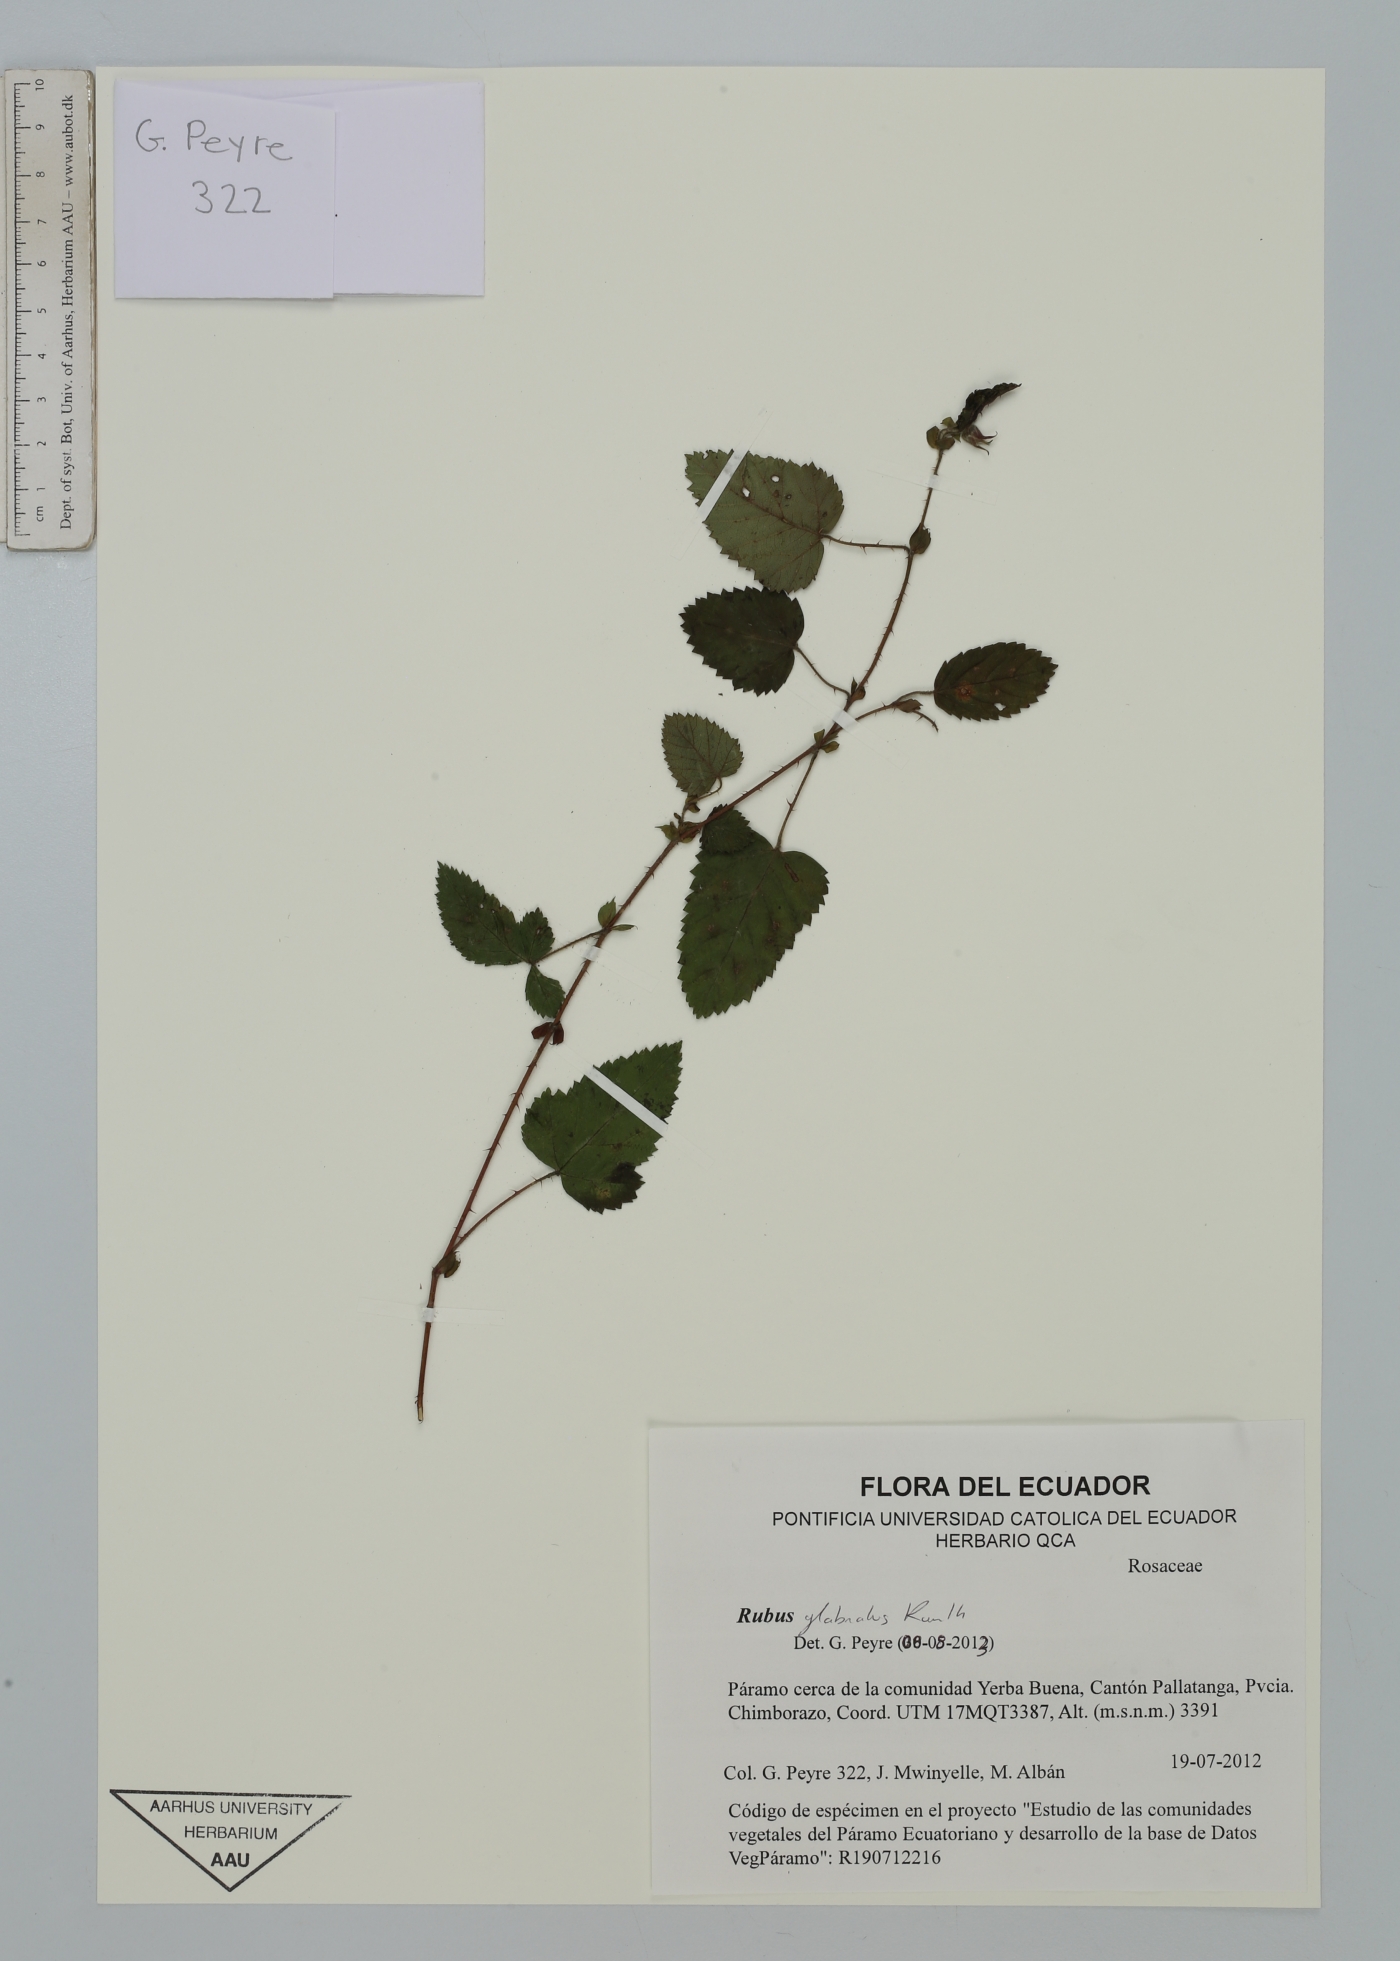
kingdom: Plantae
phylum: Tracheophyta
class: Magnoliopsida
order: Rosales
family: Rosaceae
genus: Rubus
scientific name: Rubus glabratus
